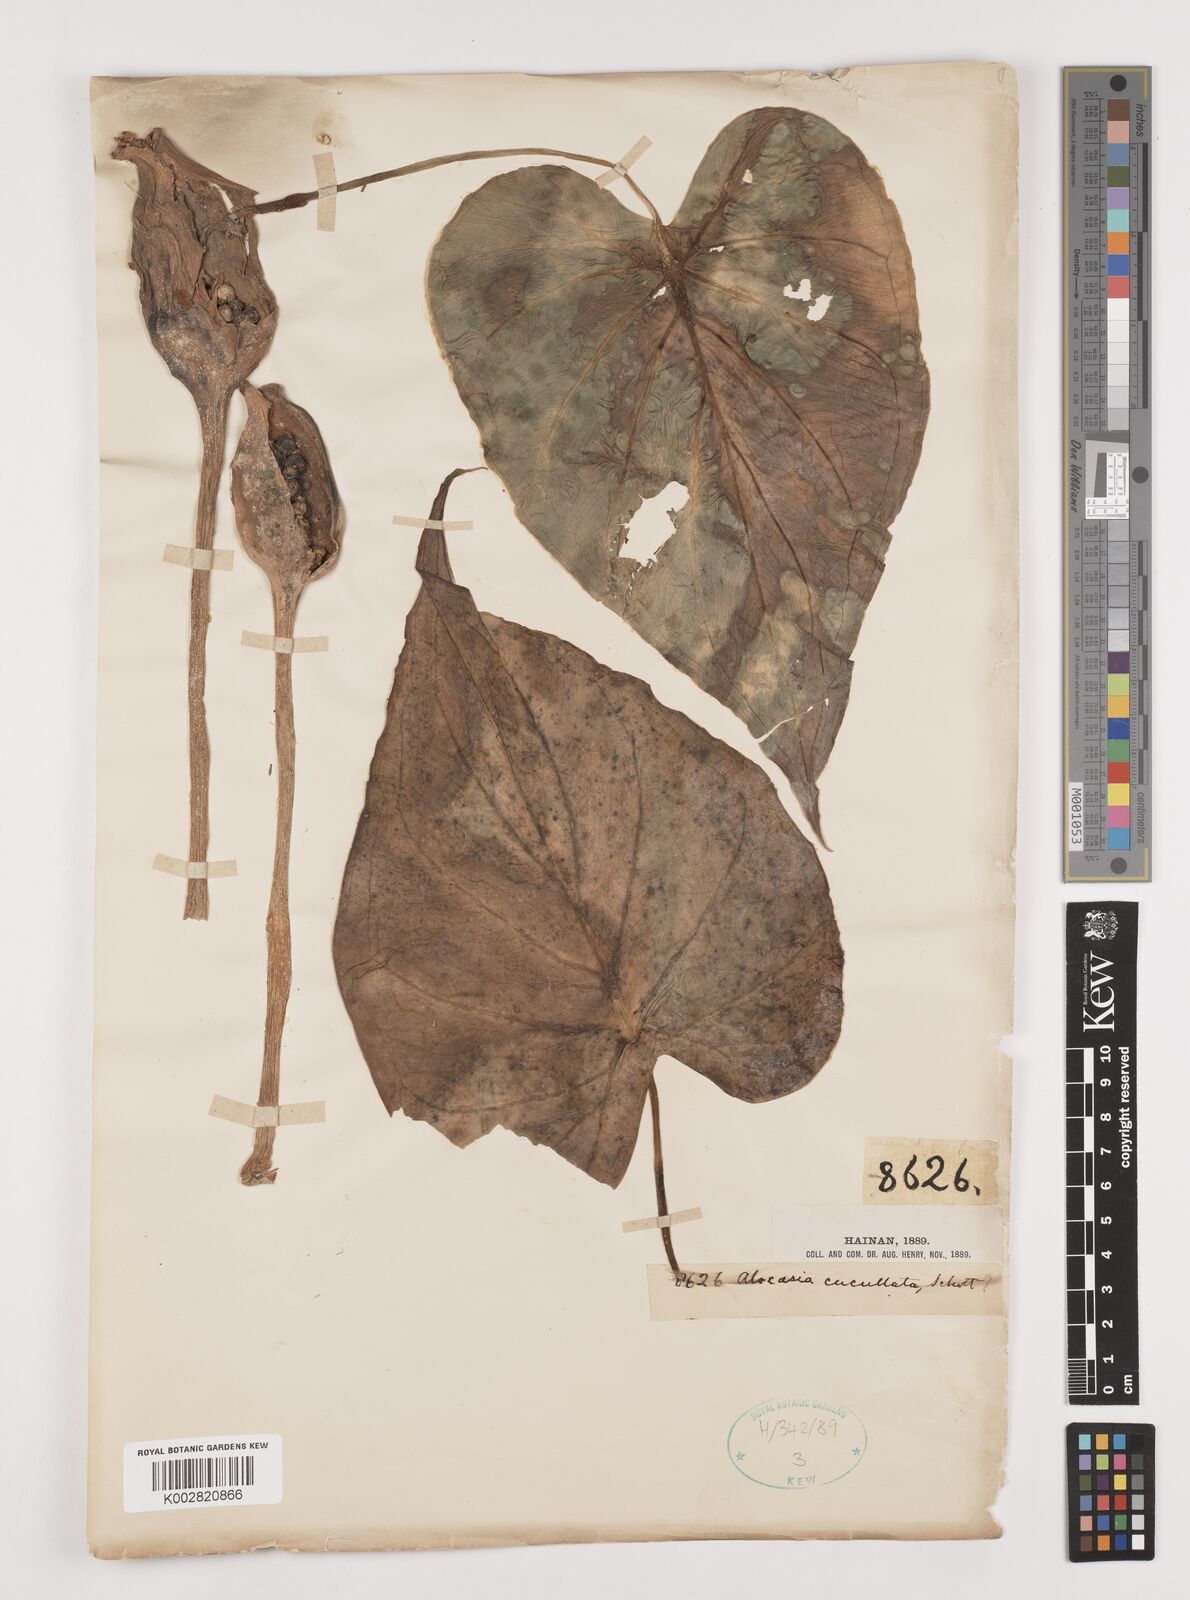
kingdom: Plantae
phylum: Tracheophyta
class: Liliopsida
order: Alismatales
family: Araceae
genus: Alocasia
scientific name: Alocasia cucullata
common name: Buddha's hand
